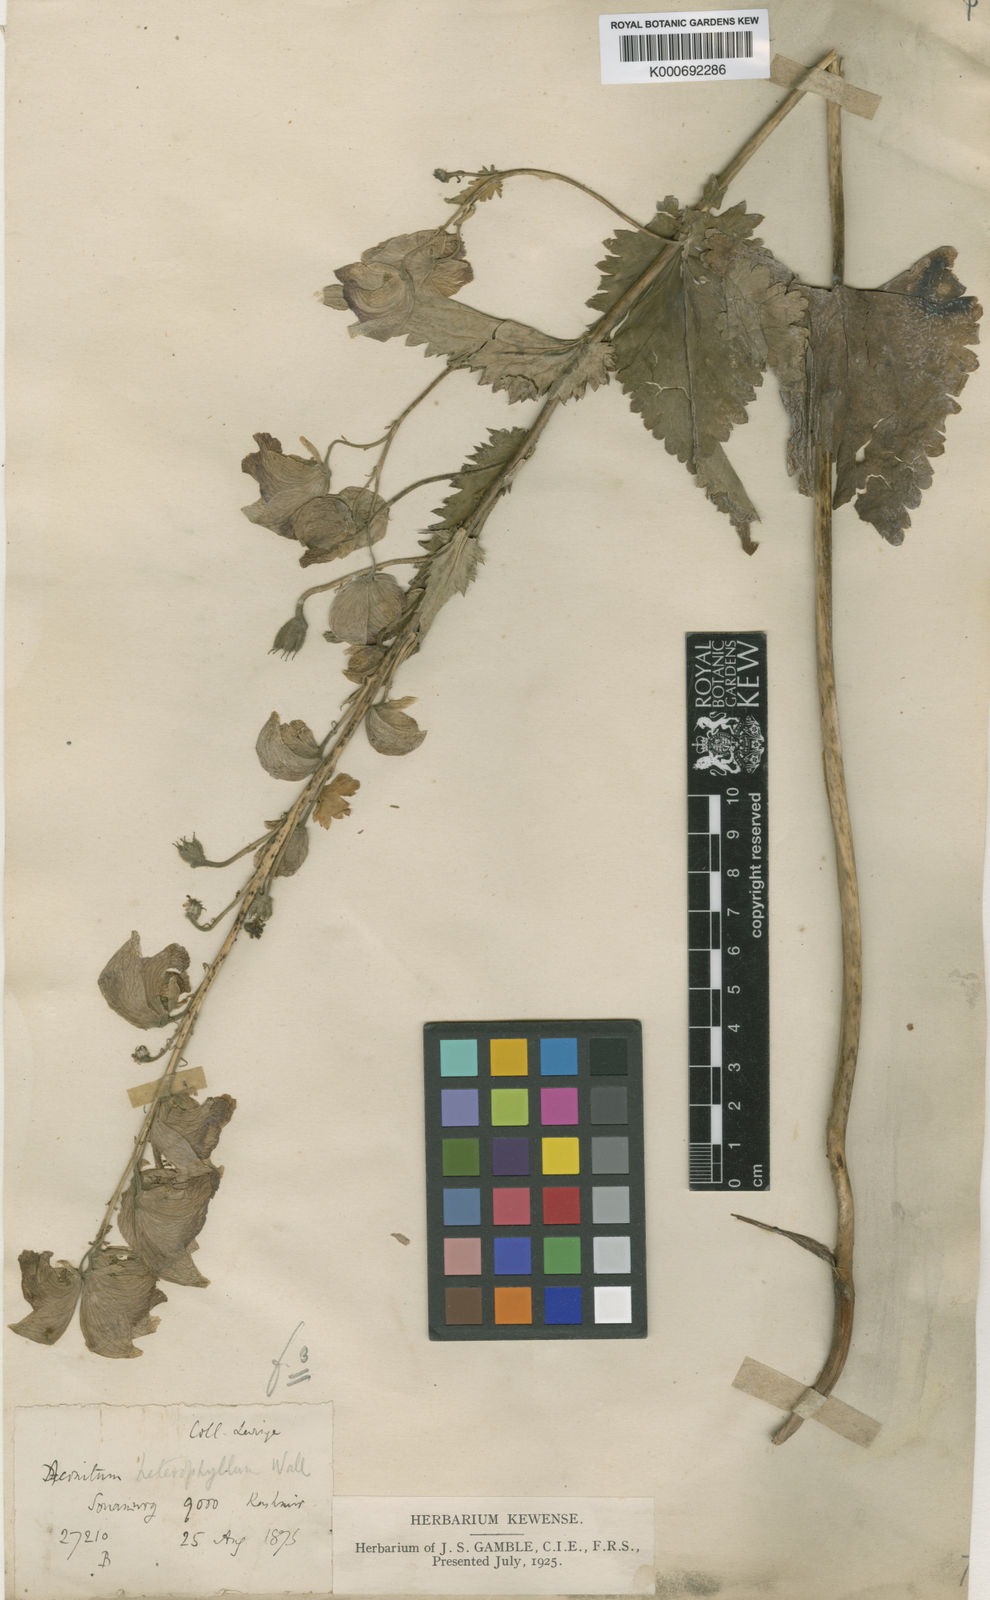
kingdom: Plantae
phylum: Tracheophyta
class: Magnoliopsida
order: Ranunculales
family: Ranunculaceae
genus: Aconitum
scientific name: Aconitum
